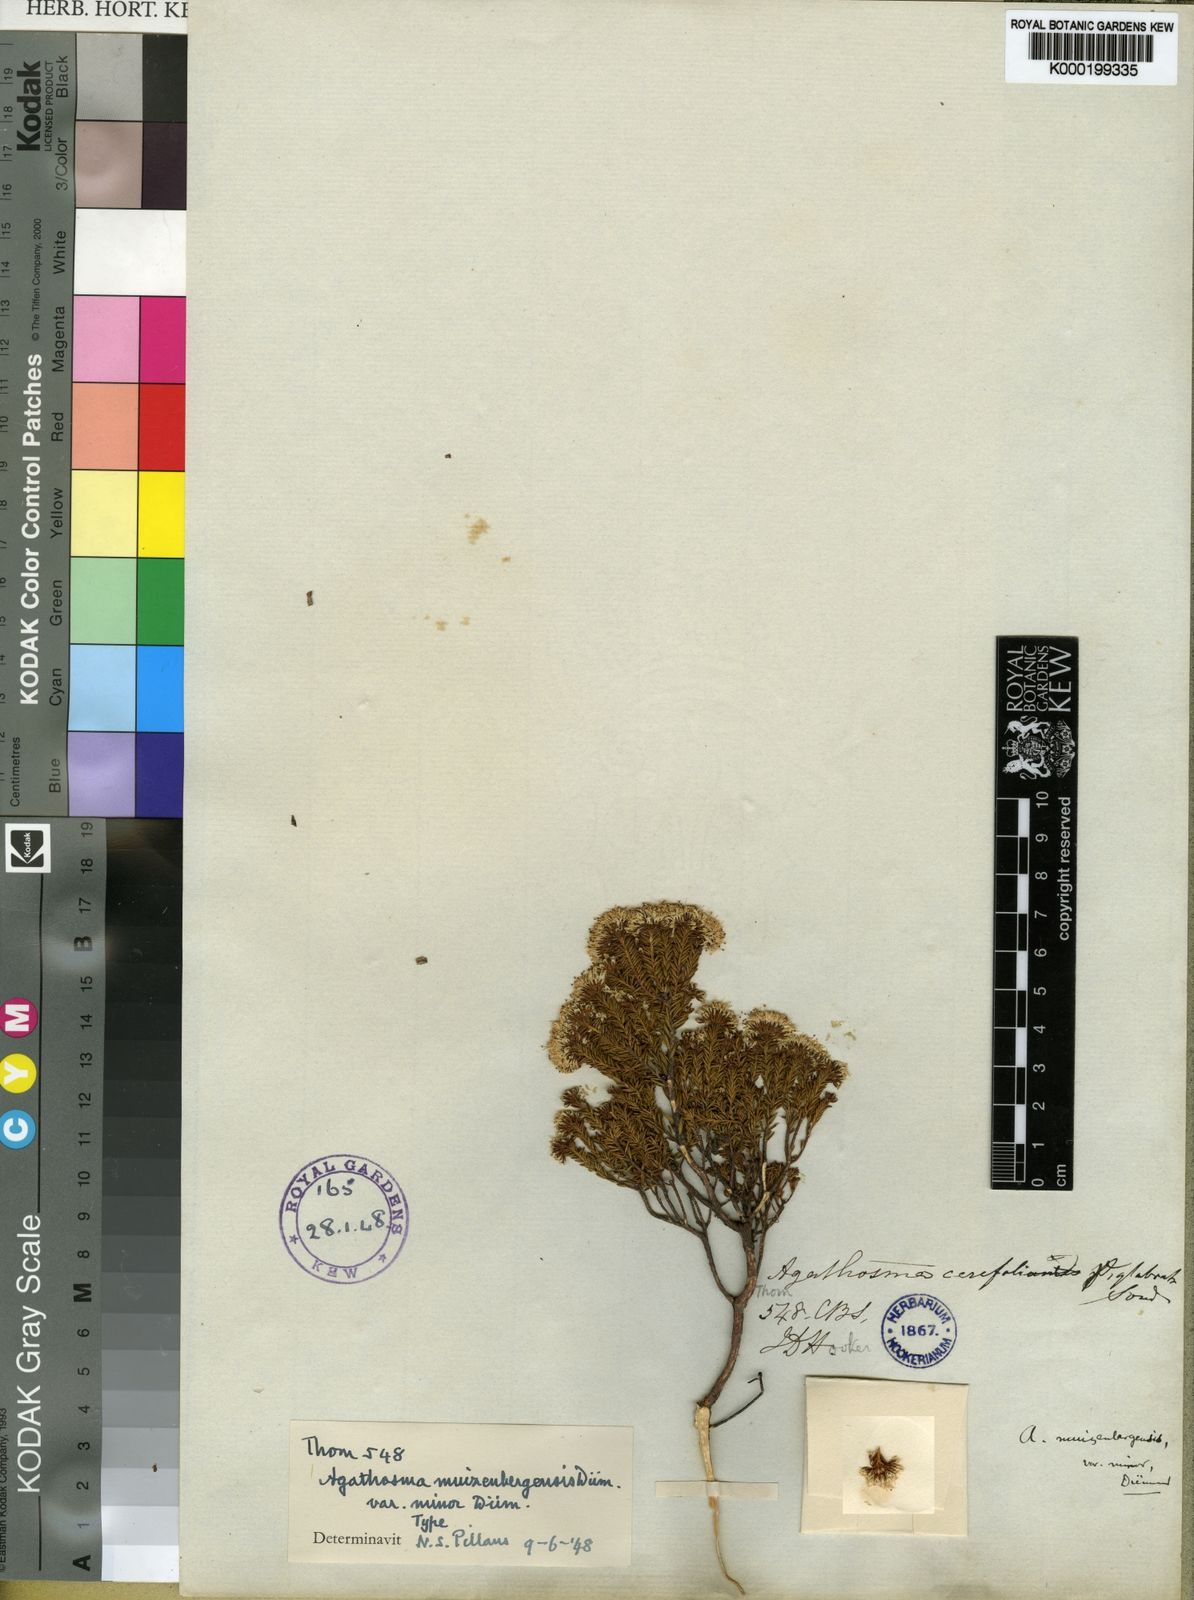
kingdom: Plantae
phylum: Tracheophyta
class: Magnoliopsida
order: Sapindales
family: Rutaceae
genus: Agathosma
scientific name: Agathosma capensis
